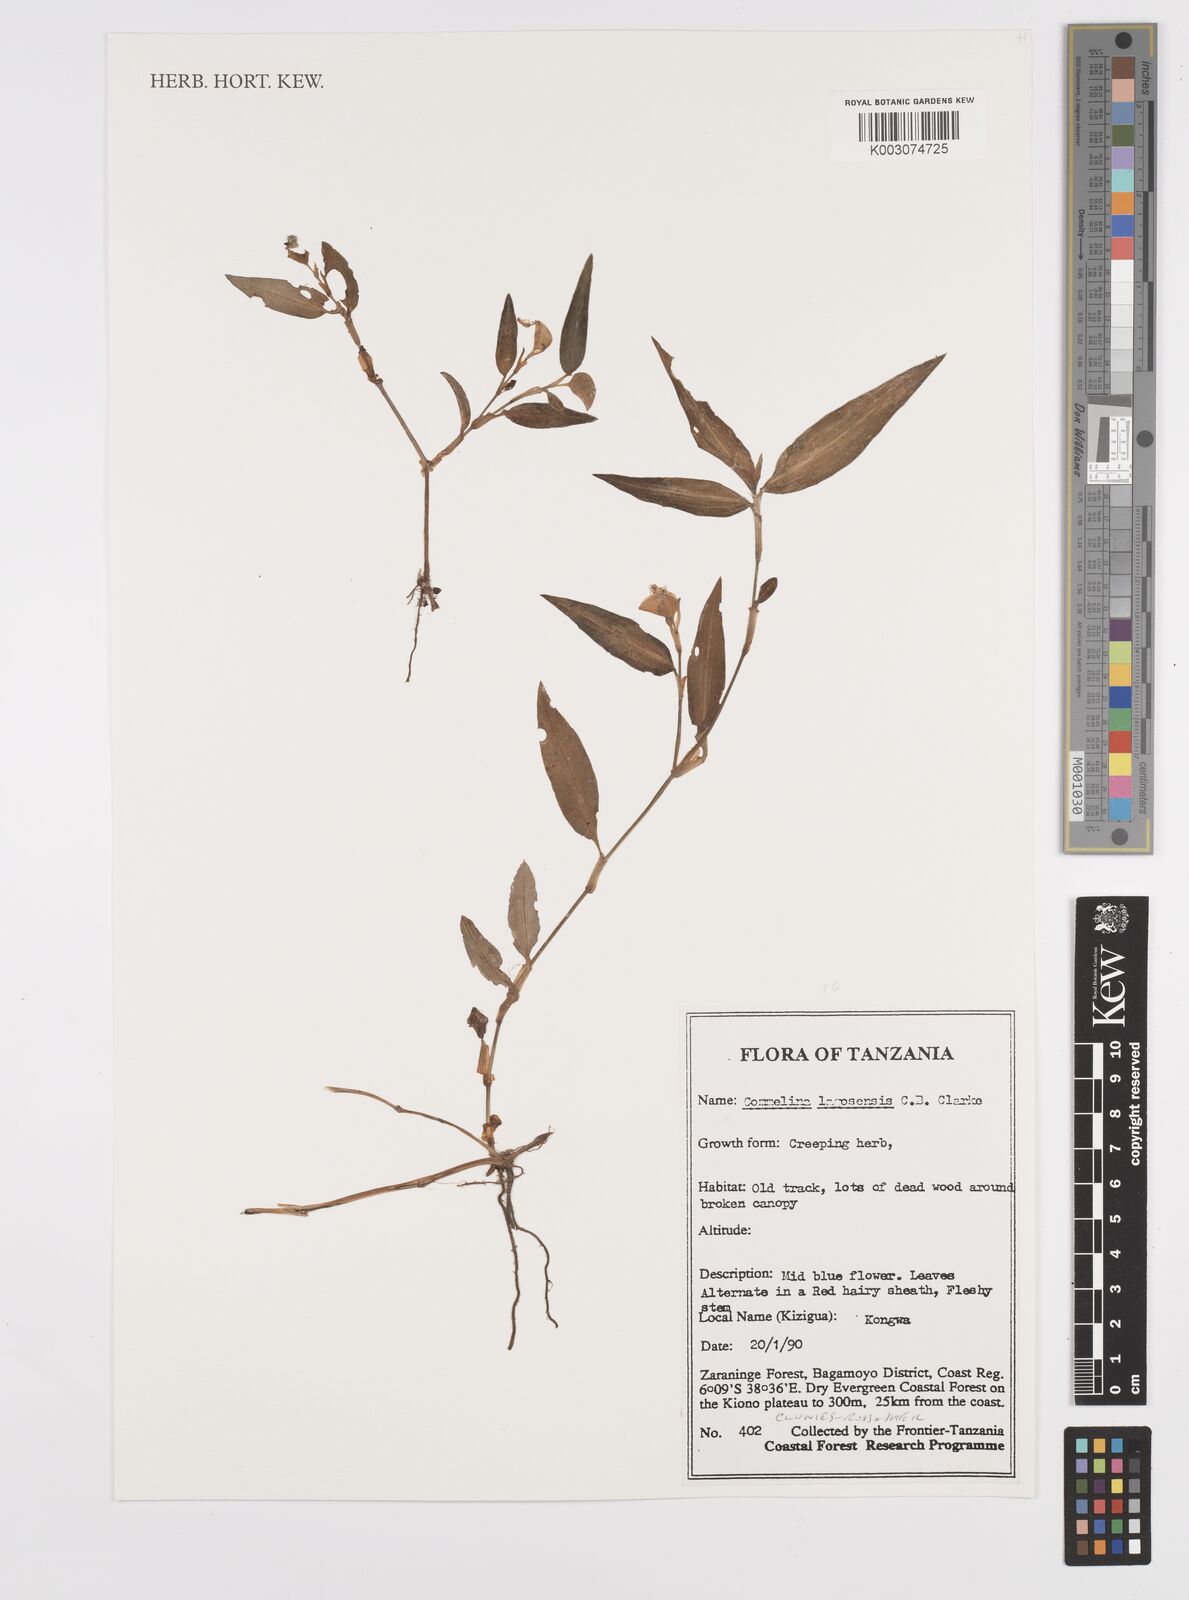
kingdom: Plantae
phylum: Tracheophyta
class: Liliopsida
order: Commelinales
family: Commelinaceae
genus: Commelina
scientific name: Commelina bracteosa
